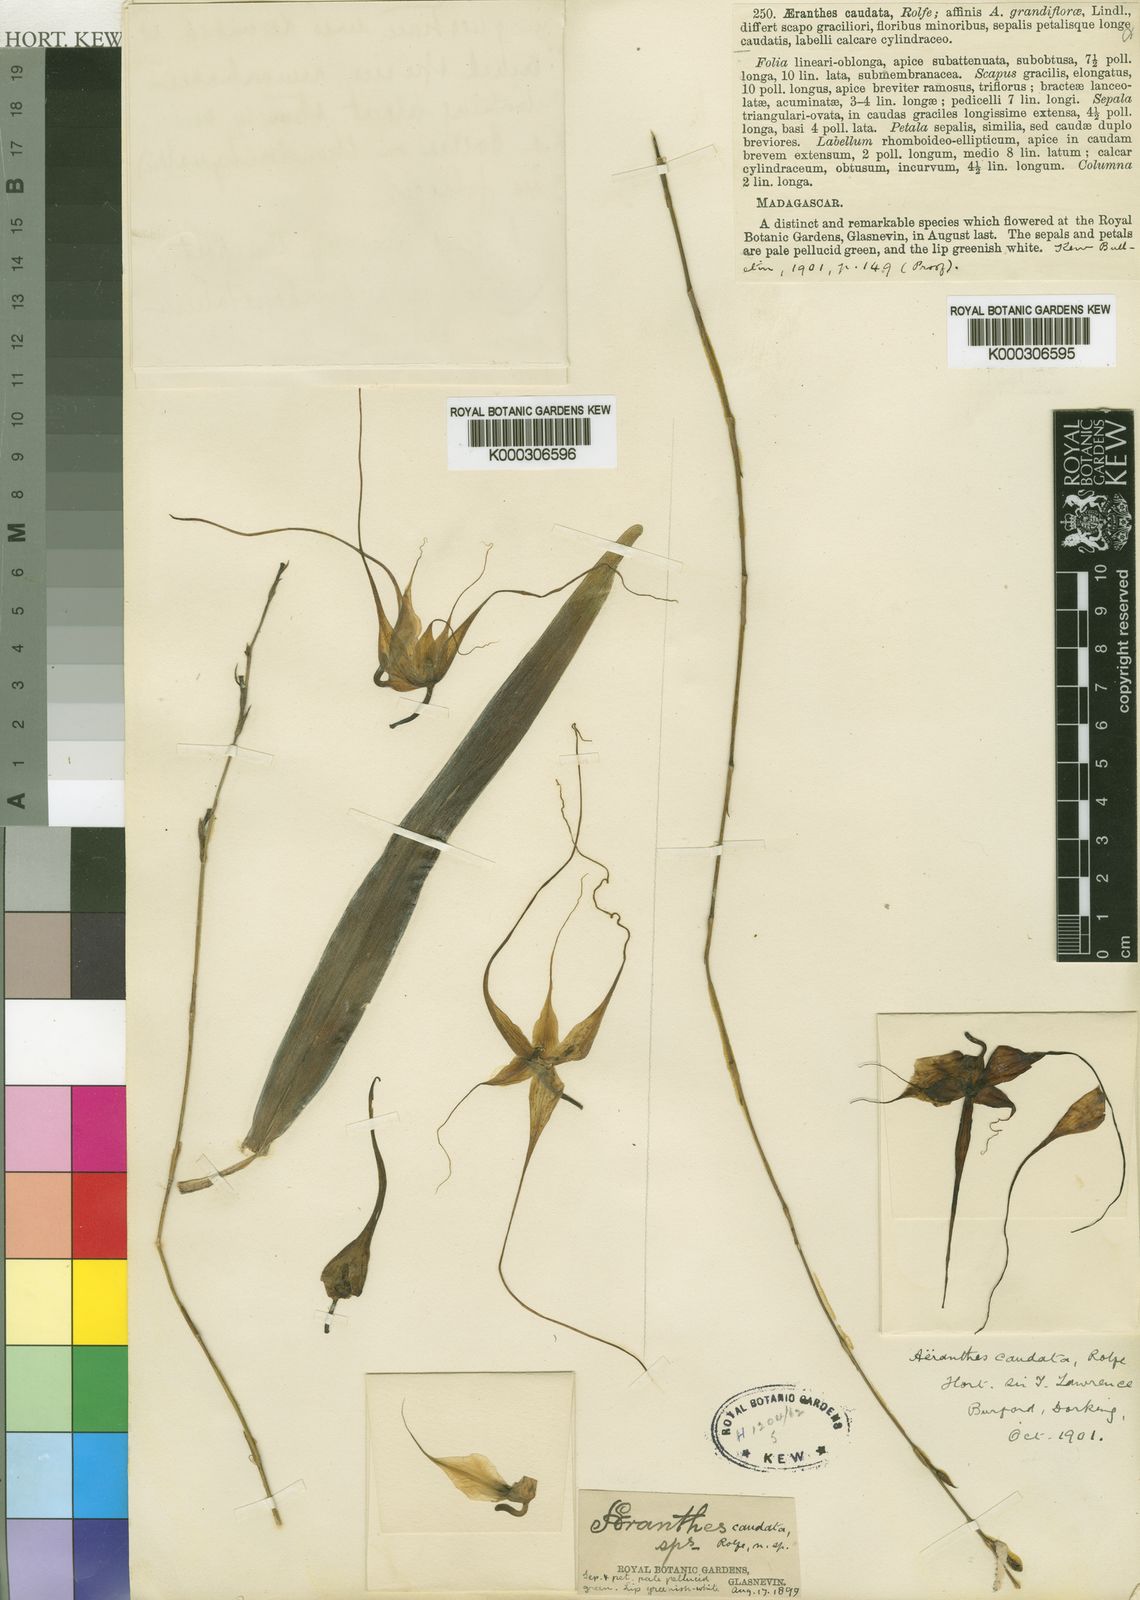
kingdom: Plantae
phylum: Tracheophyta
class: Liliopsida
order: Asparagales
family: Orchidaceae
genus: Aeranthes
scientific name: Aeranthes caudata
